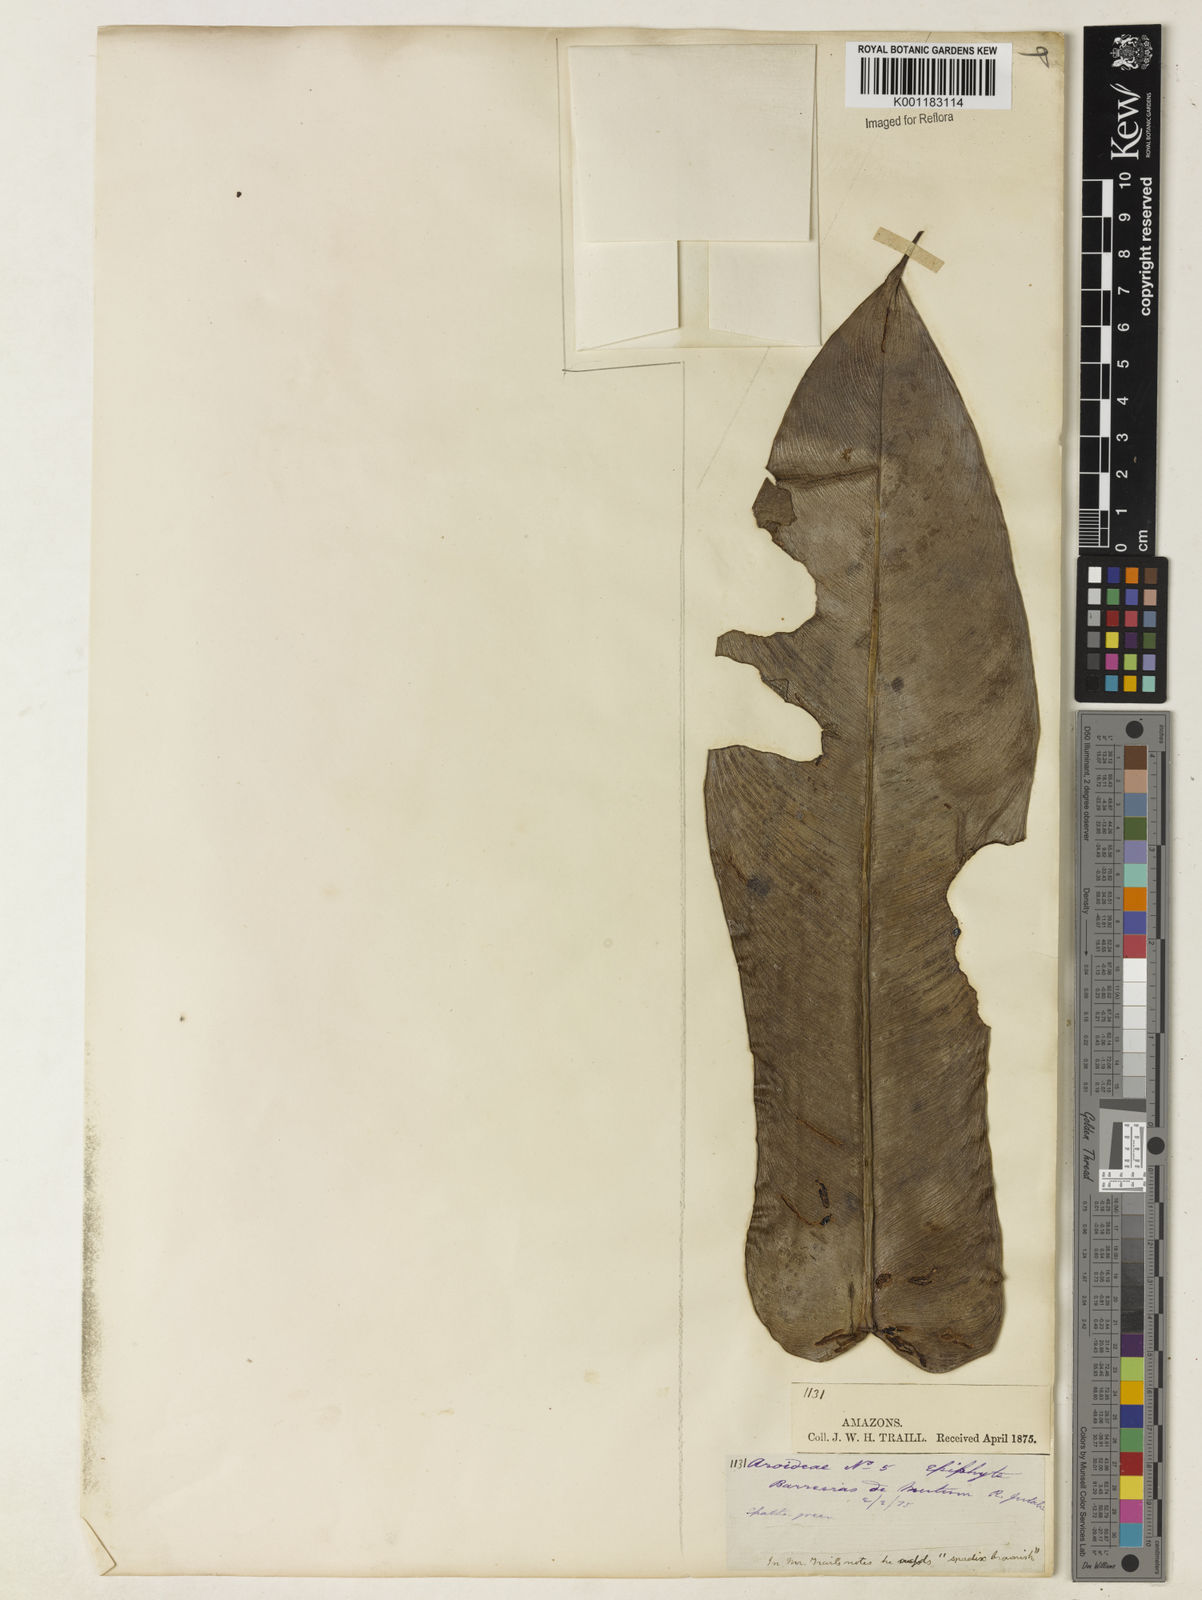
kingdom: Plantae
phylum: Tracheophyta
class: Liliopsida
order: Alismatales
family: Araceae
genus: Philodendron
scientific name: Philodendron burle-marxii
